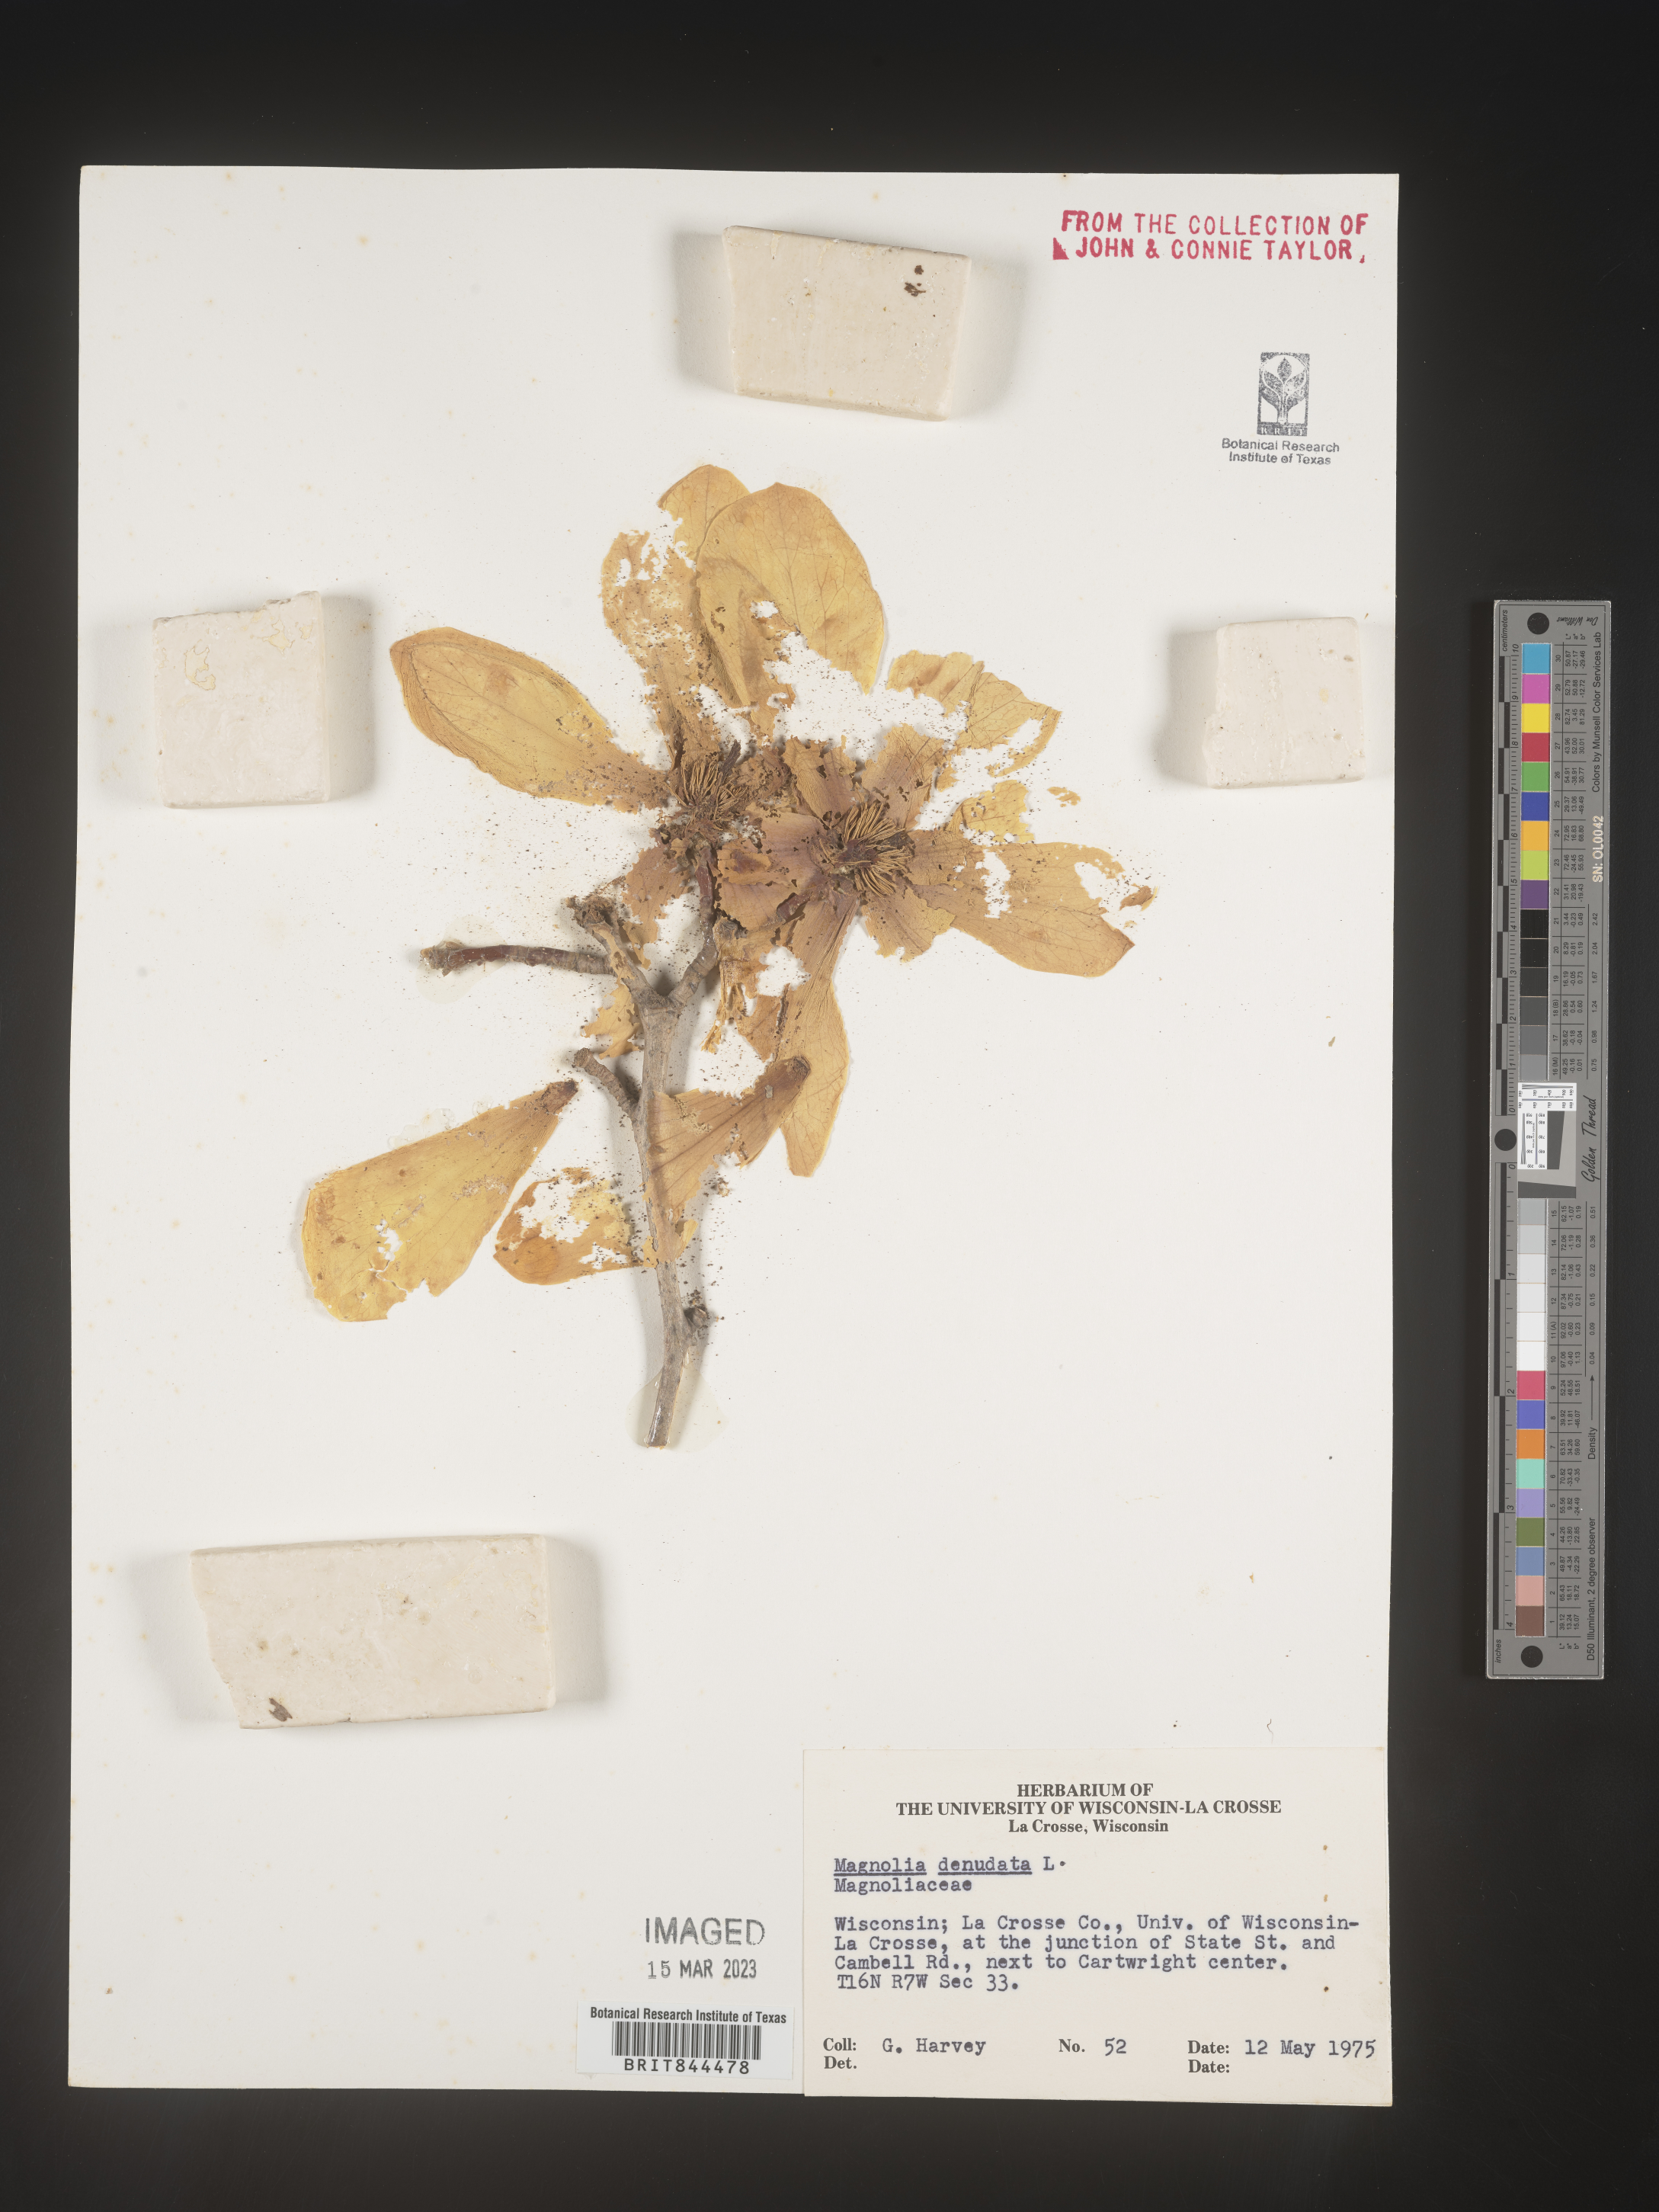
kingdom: Plantae
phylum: Tracheophyta
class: Magnoliopsida
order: Magnoliales
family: Magnoliaceae
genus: Magnolia
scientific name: Magnolia
